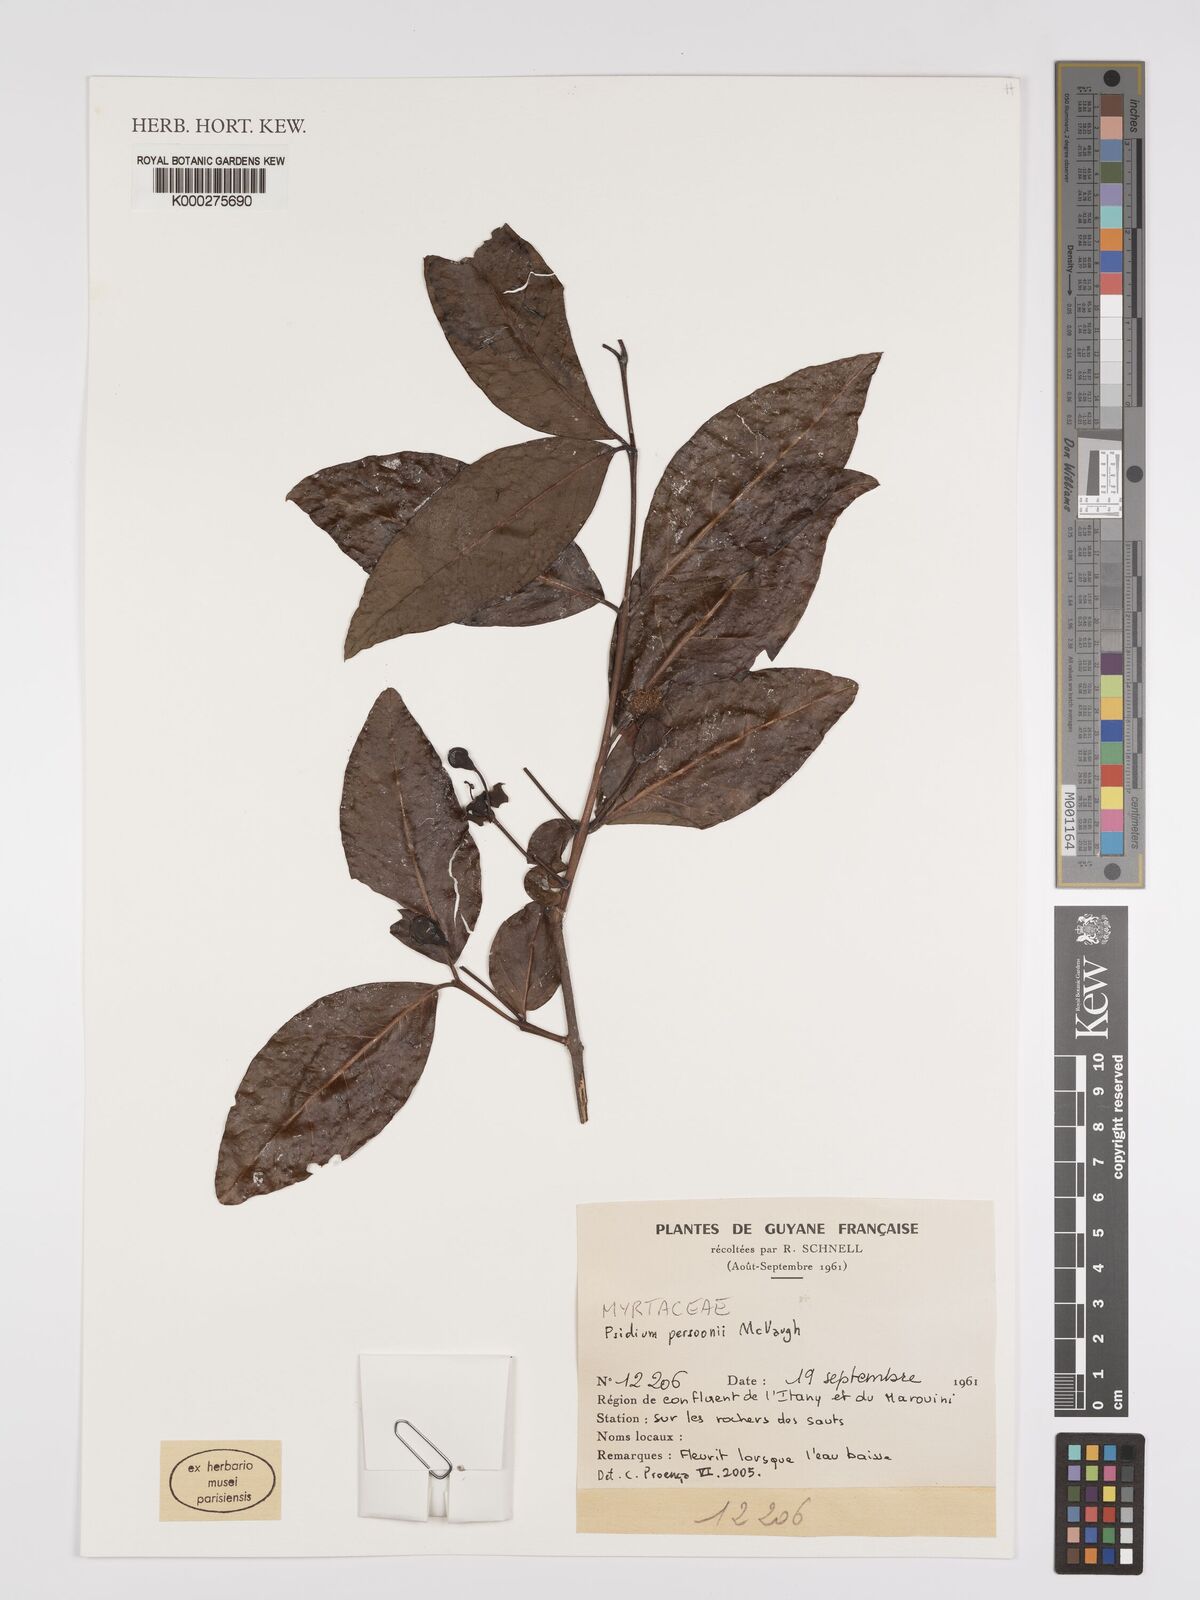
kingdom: Plantae
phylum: Tracheophyta
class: Magnoliopsida
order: Myrtales
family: Myrtaceae
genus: Psidium
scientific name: Psidium acutangulum
